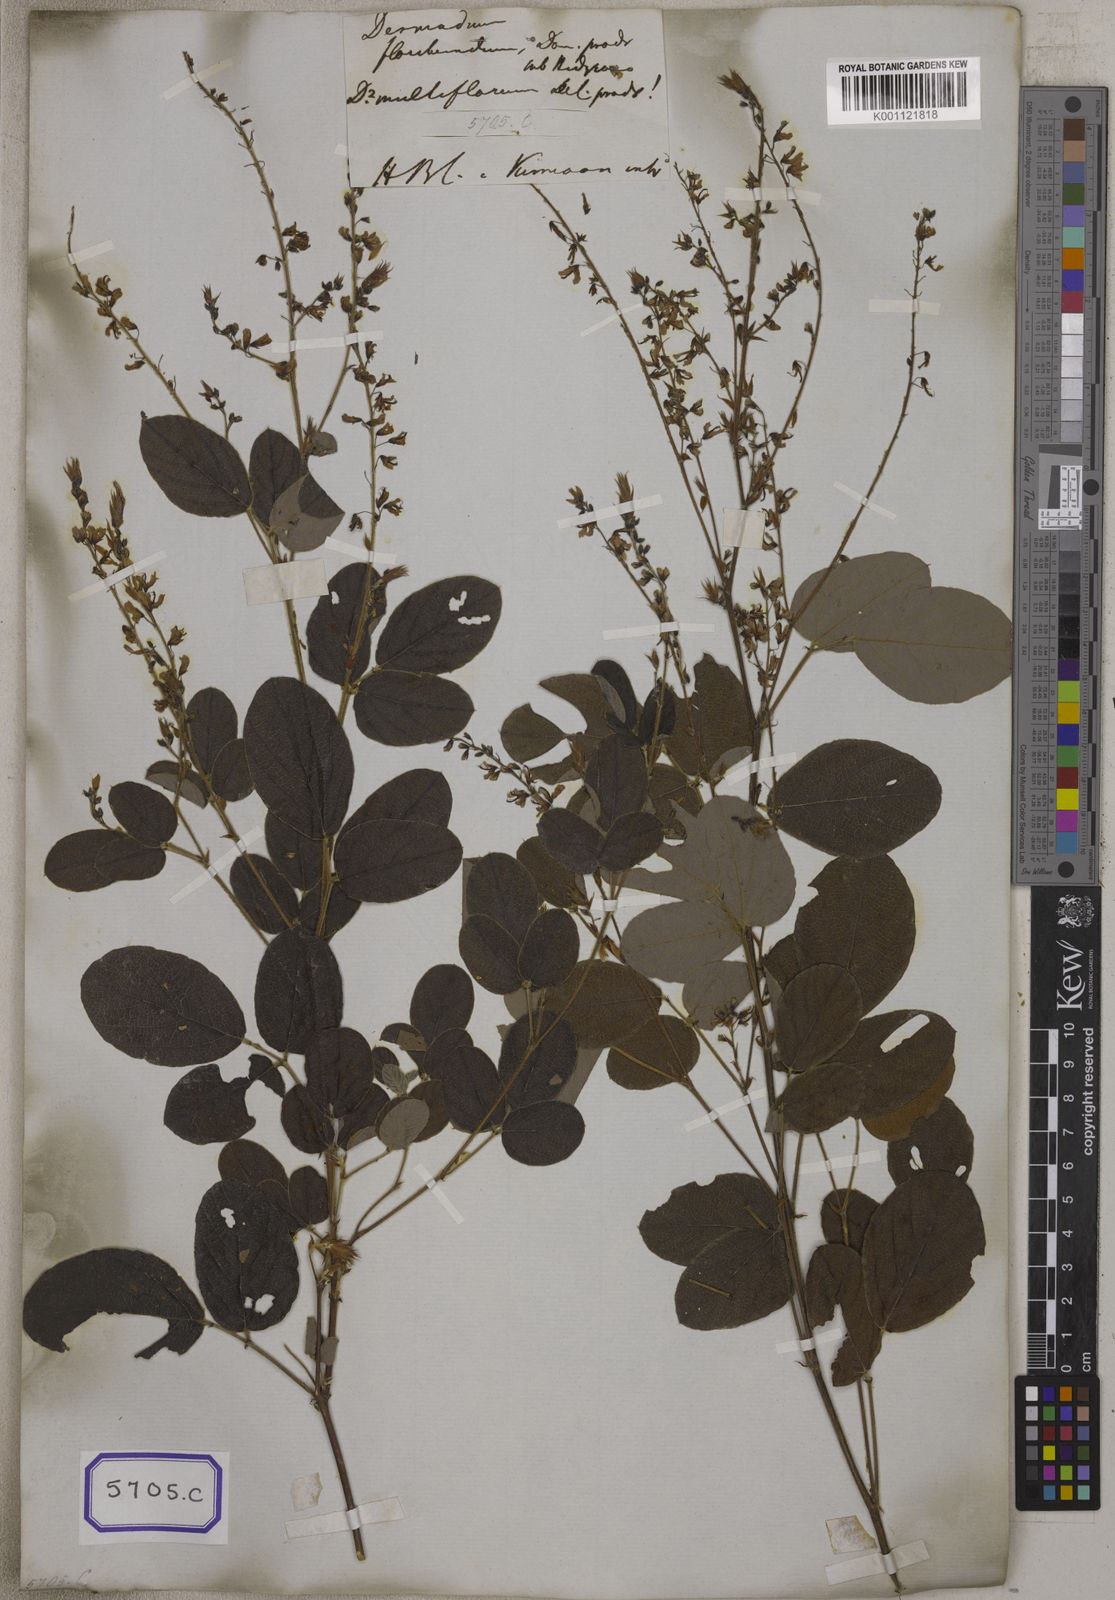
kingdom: Plantae
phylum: Tracheophyta
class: Magnoliopsida
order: Fabales
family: Fabaceae
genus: Ototropis
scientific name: Ototropis multiflora
